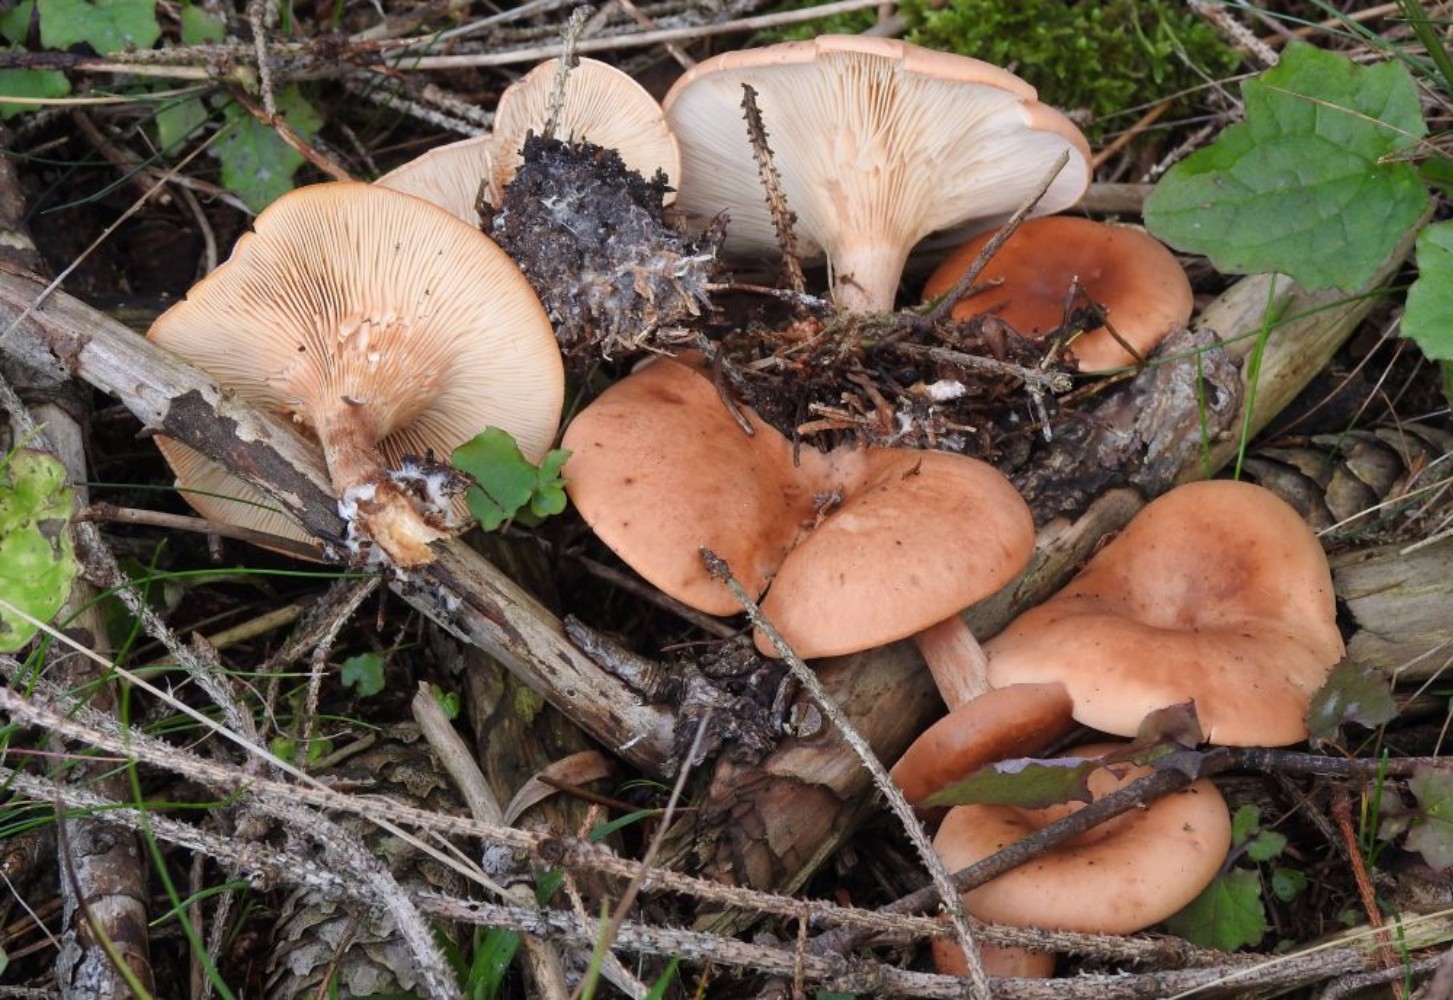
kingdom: Fungi
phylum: Basidiomycota
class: Agaricomycetes
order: Agaricales
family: Tricholomataceae
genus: Paralepista
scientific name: Paralepista flaccida
